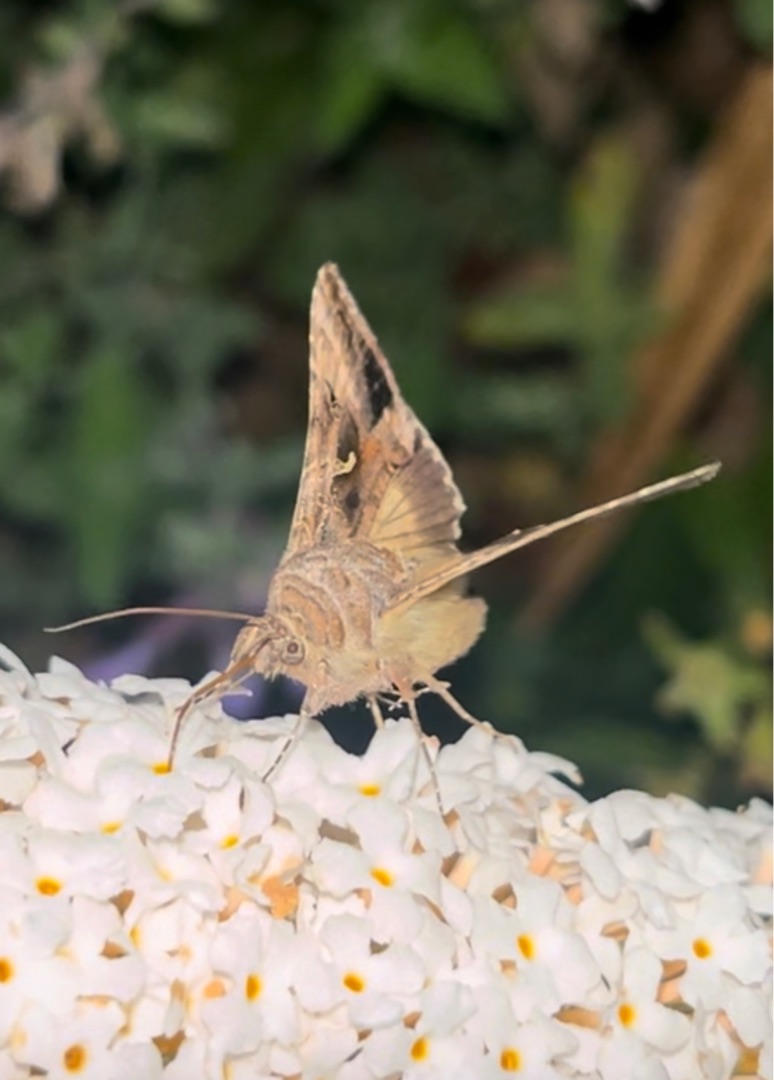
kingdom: Animalia
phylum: Arthropoda
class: Insecta
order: Lepidoptera
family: Noctuidae
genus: Autographa
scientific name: Autographa gamma
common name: Gammaugle
